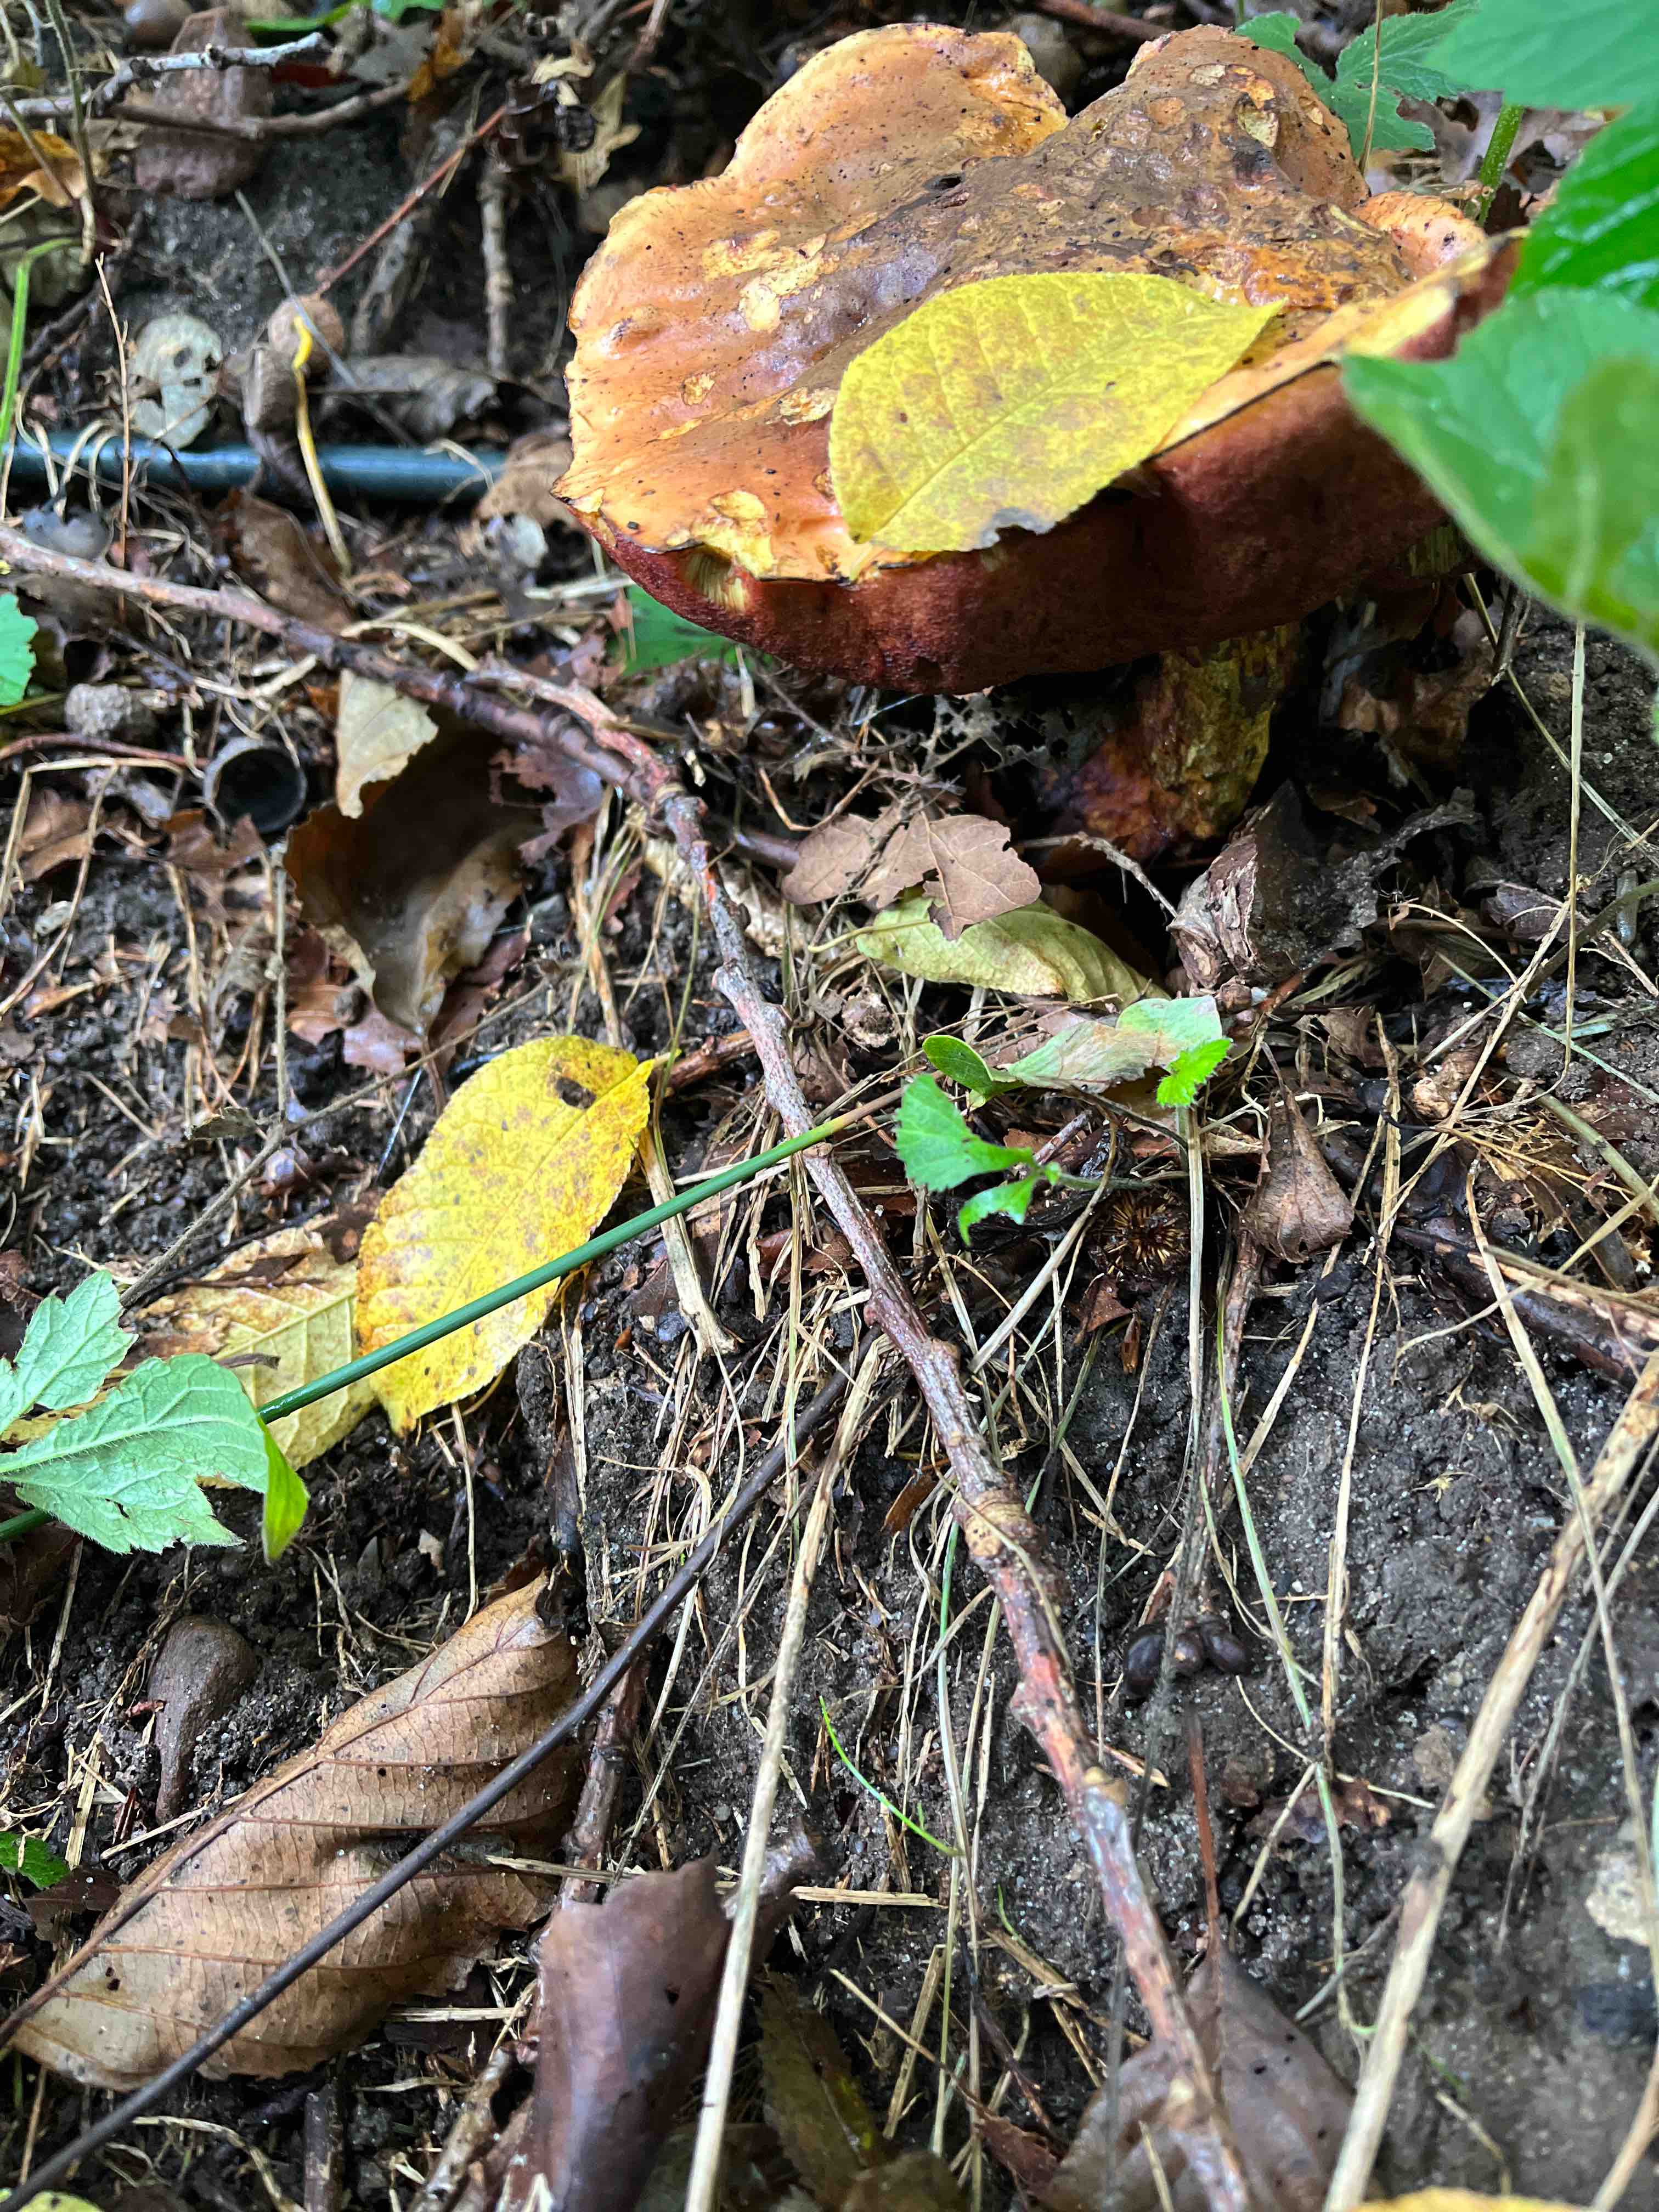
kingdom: Fungi
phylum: Basidiomycota
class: Agaricomycetes
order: Boletales
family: Boletaceae
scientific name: Boletaceae
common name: rørhatfamilien
